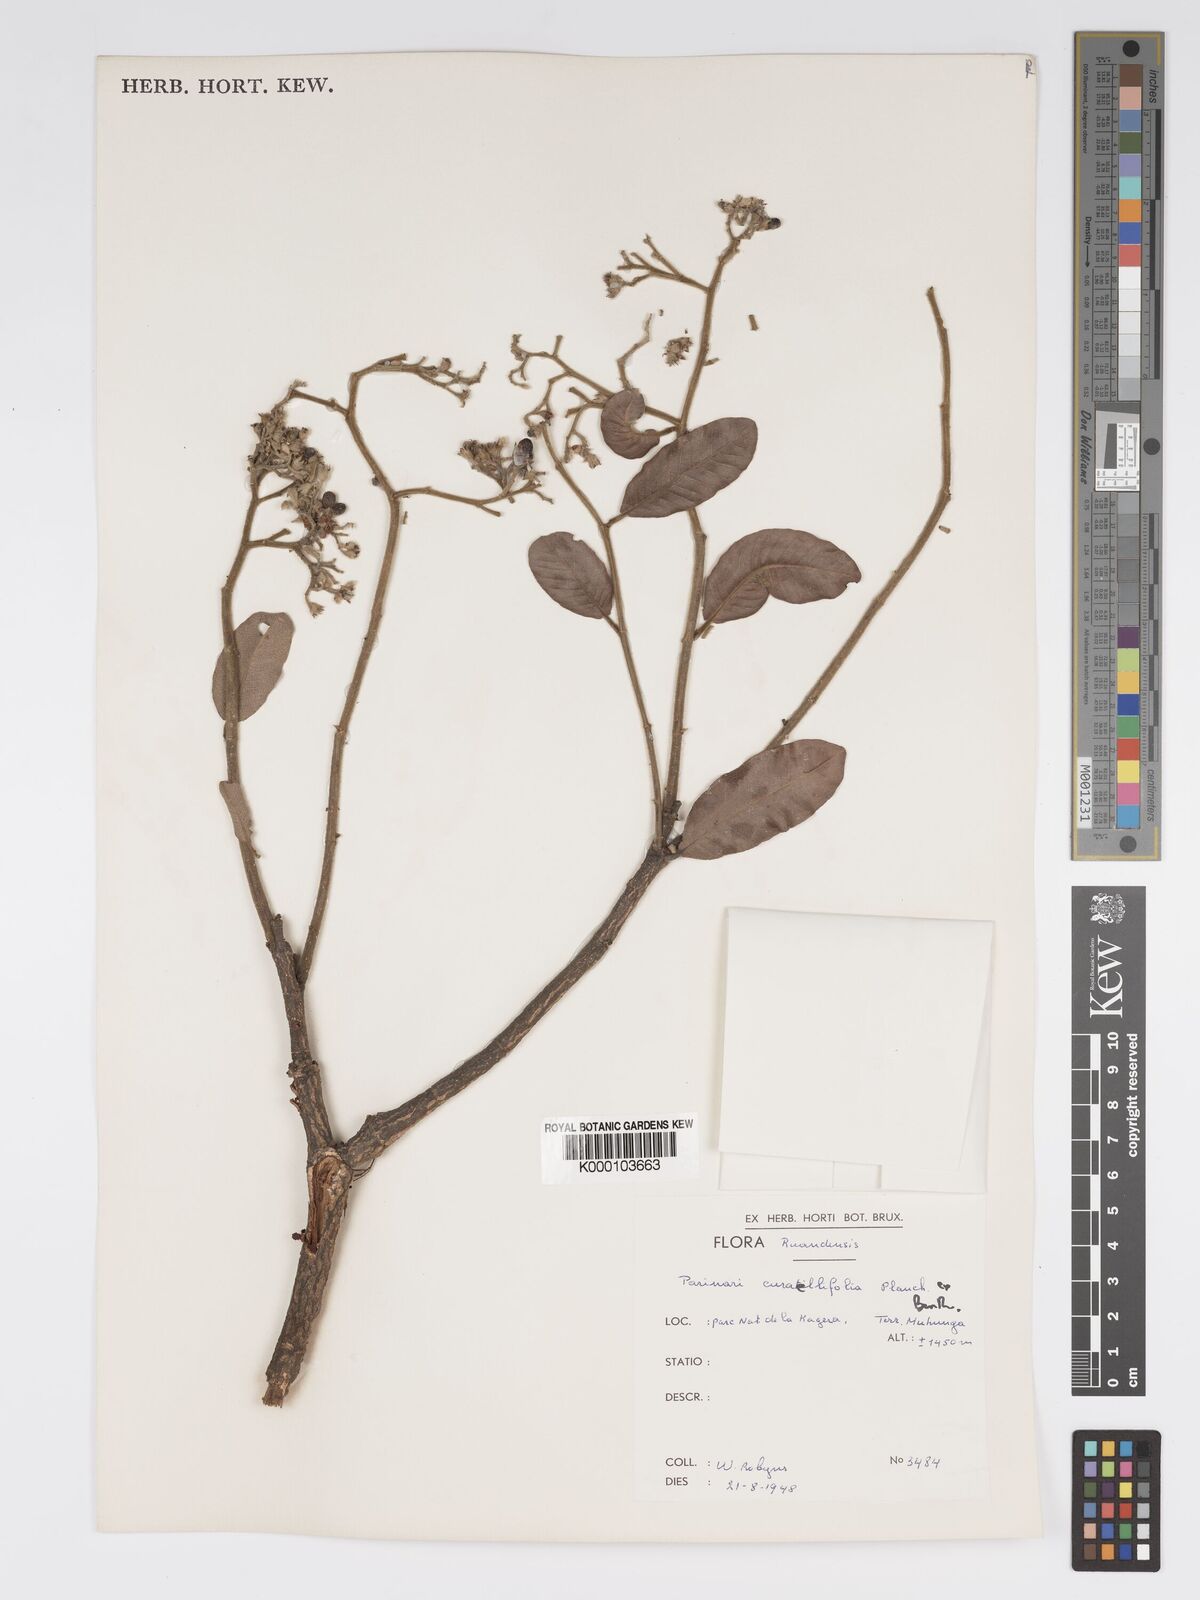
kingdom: Plantae
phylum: Tracheophyta
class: Magnoliopsida
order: Malpighiales
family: Chrysobalanaceae
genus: Parinari
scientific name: Parinari curatellifolia
